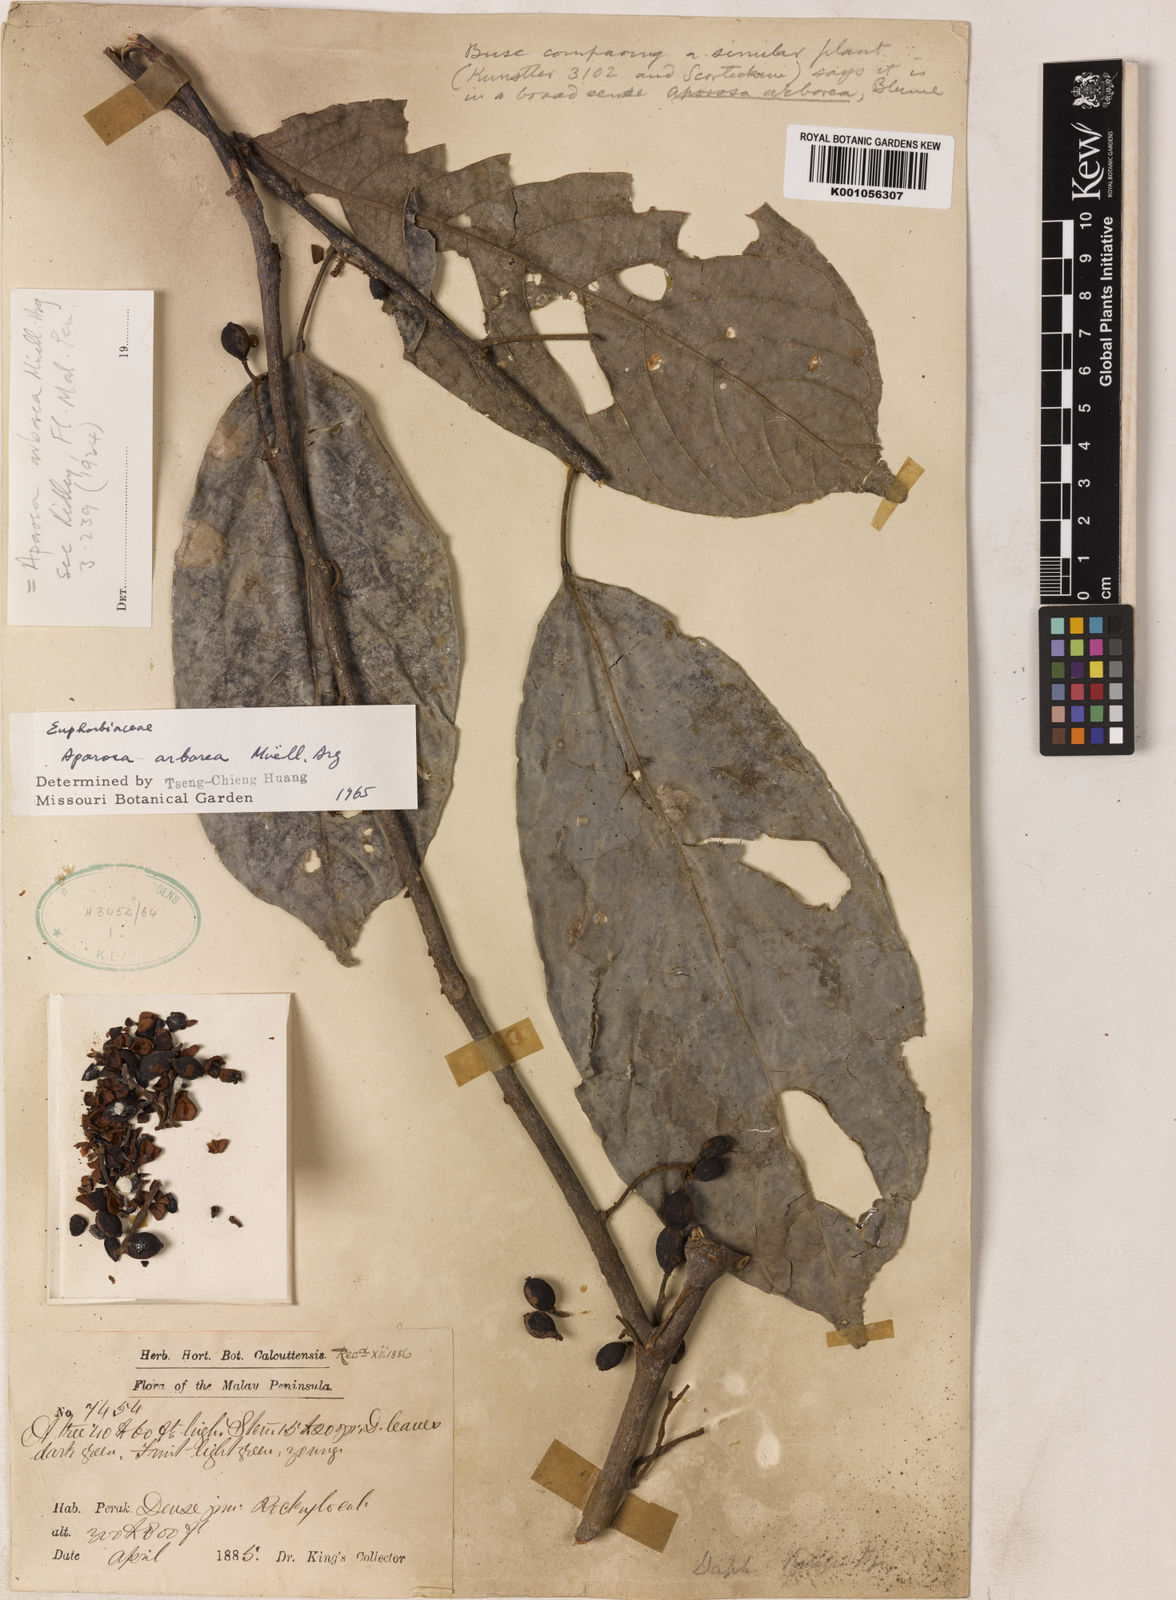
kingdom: Plantae
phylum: Tracheophyta
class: Magnoliopsida
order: Malpighiales
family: Phyllanthaceae
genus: Aporosa
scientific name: Aporosa
